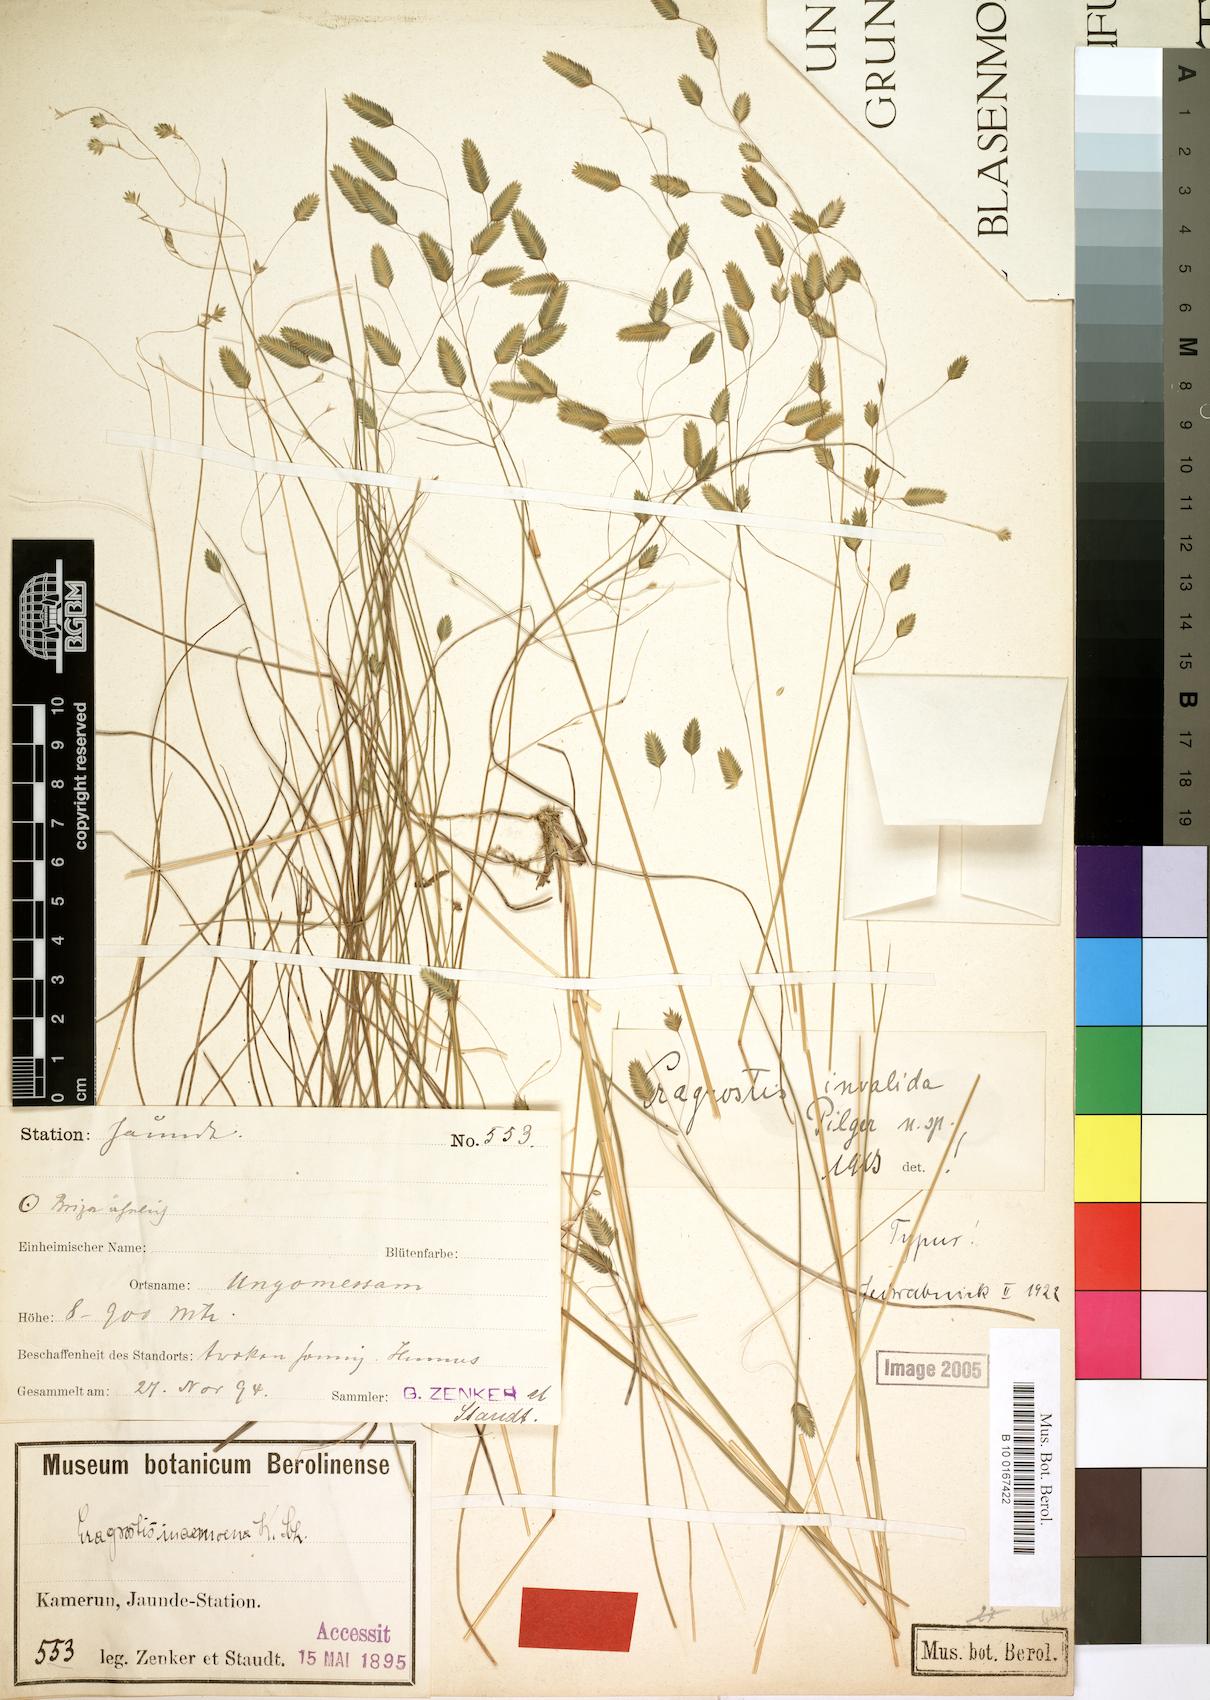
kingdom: Plantae
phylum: Tracheophyta
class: Liliopsida
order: Poales
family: Poaceae
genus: Eragrostis
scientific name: Eragrostis invalida
